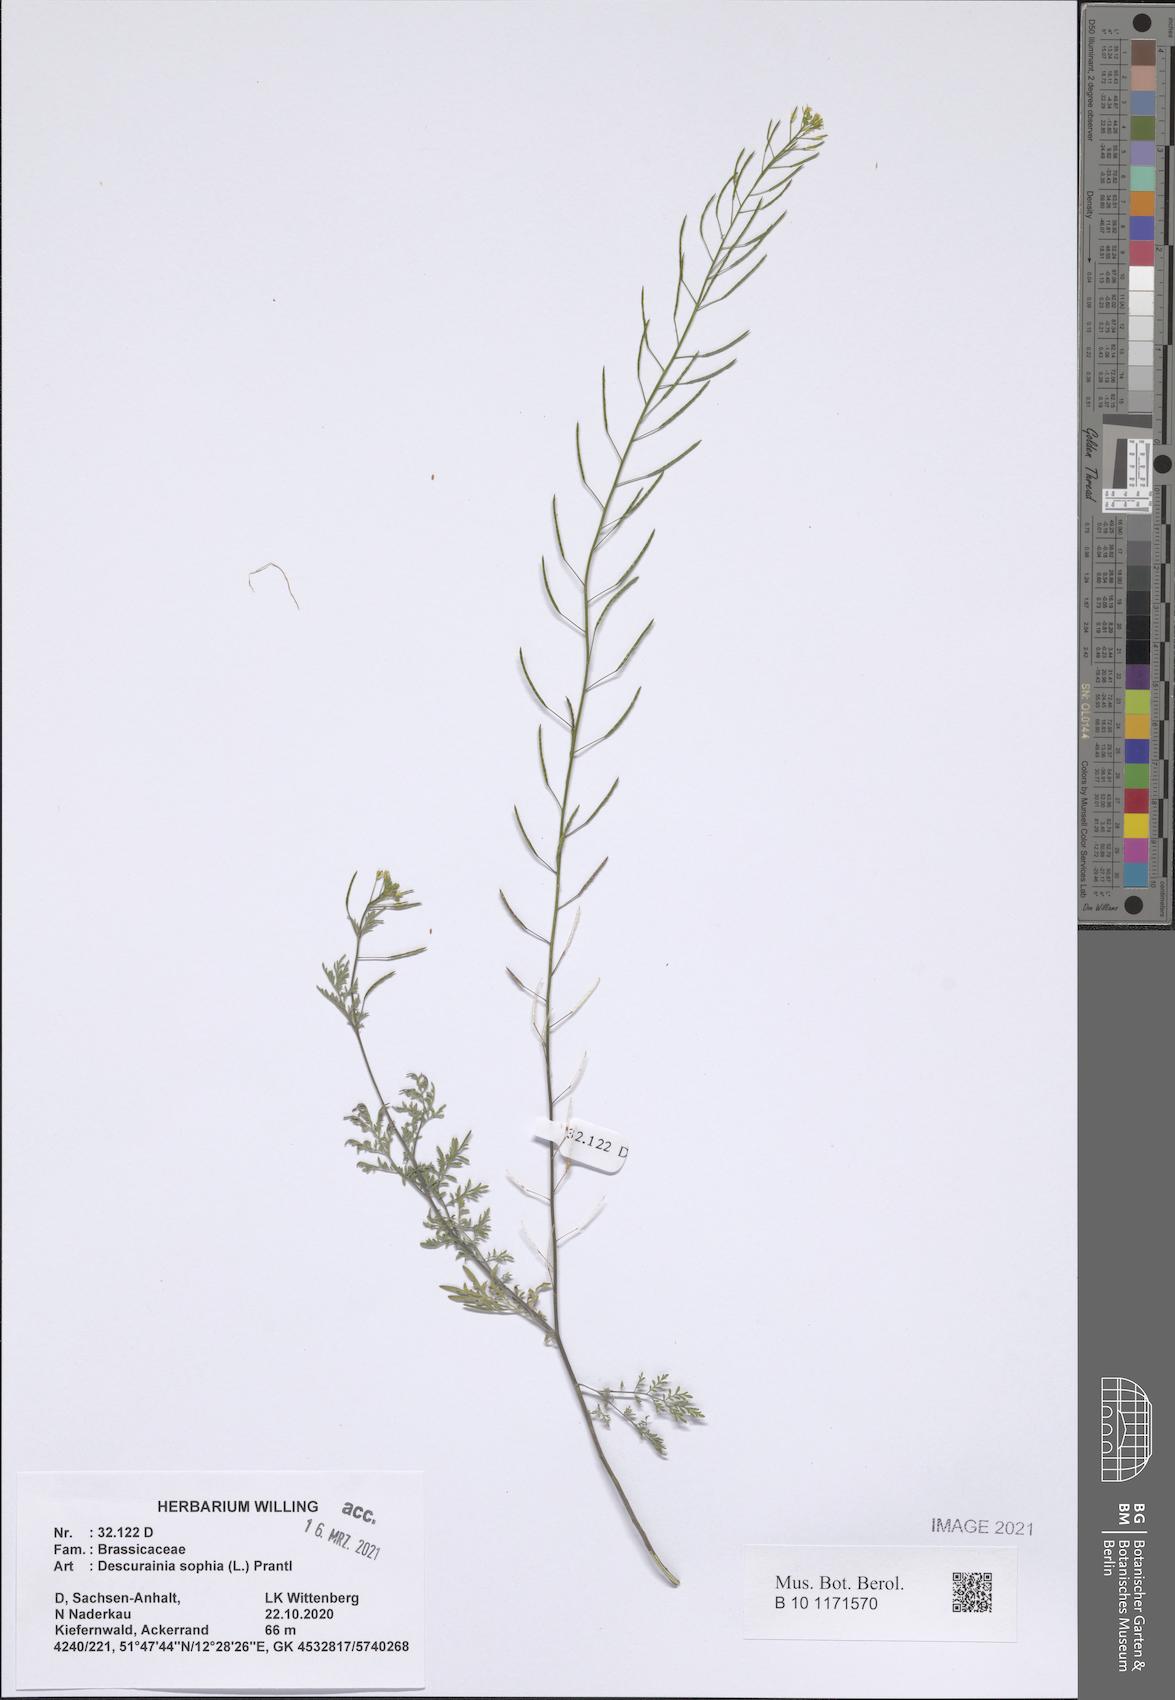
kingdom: Plantae
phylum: Tracheophyta
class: Magnoliopsida
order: Brassicales
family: Brassicaceae
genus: Descurainia
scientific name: Descurainia sophia
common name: Flixweed
